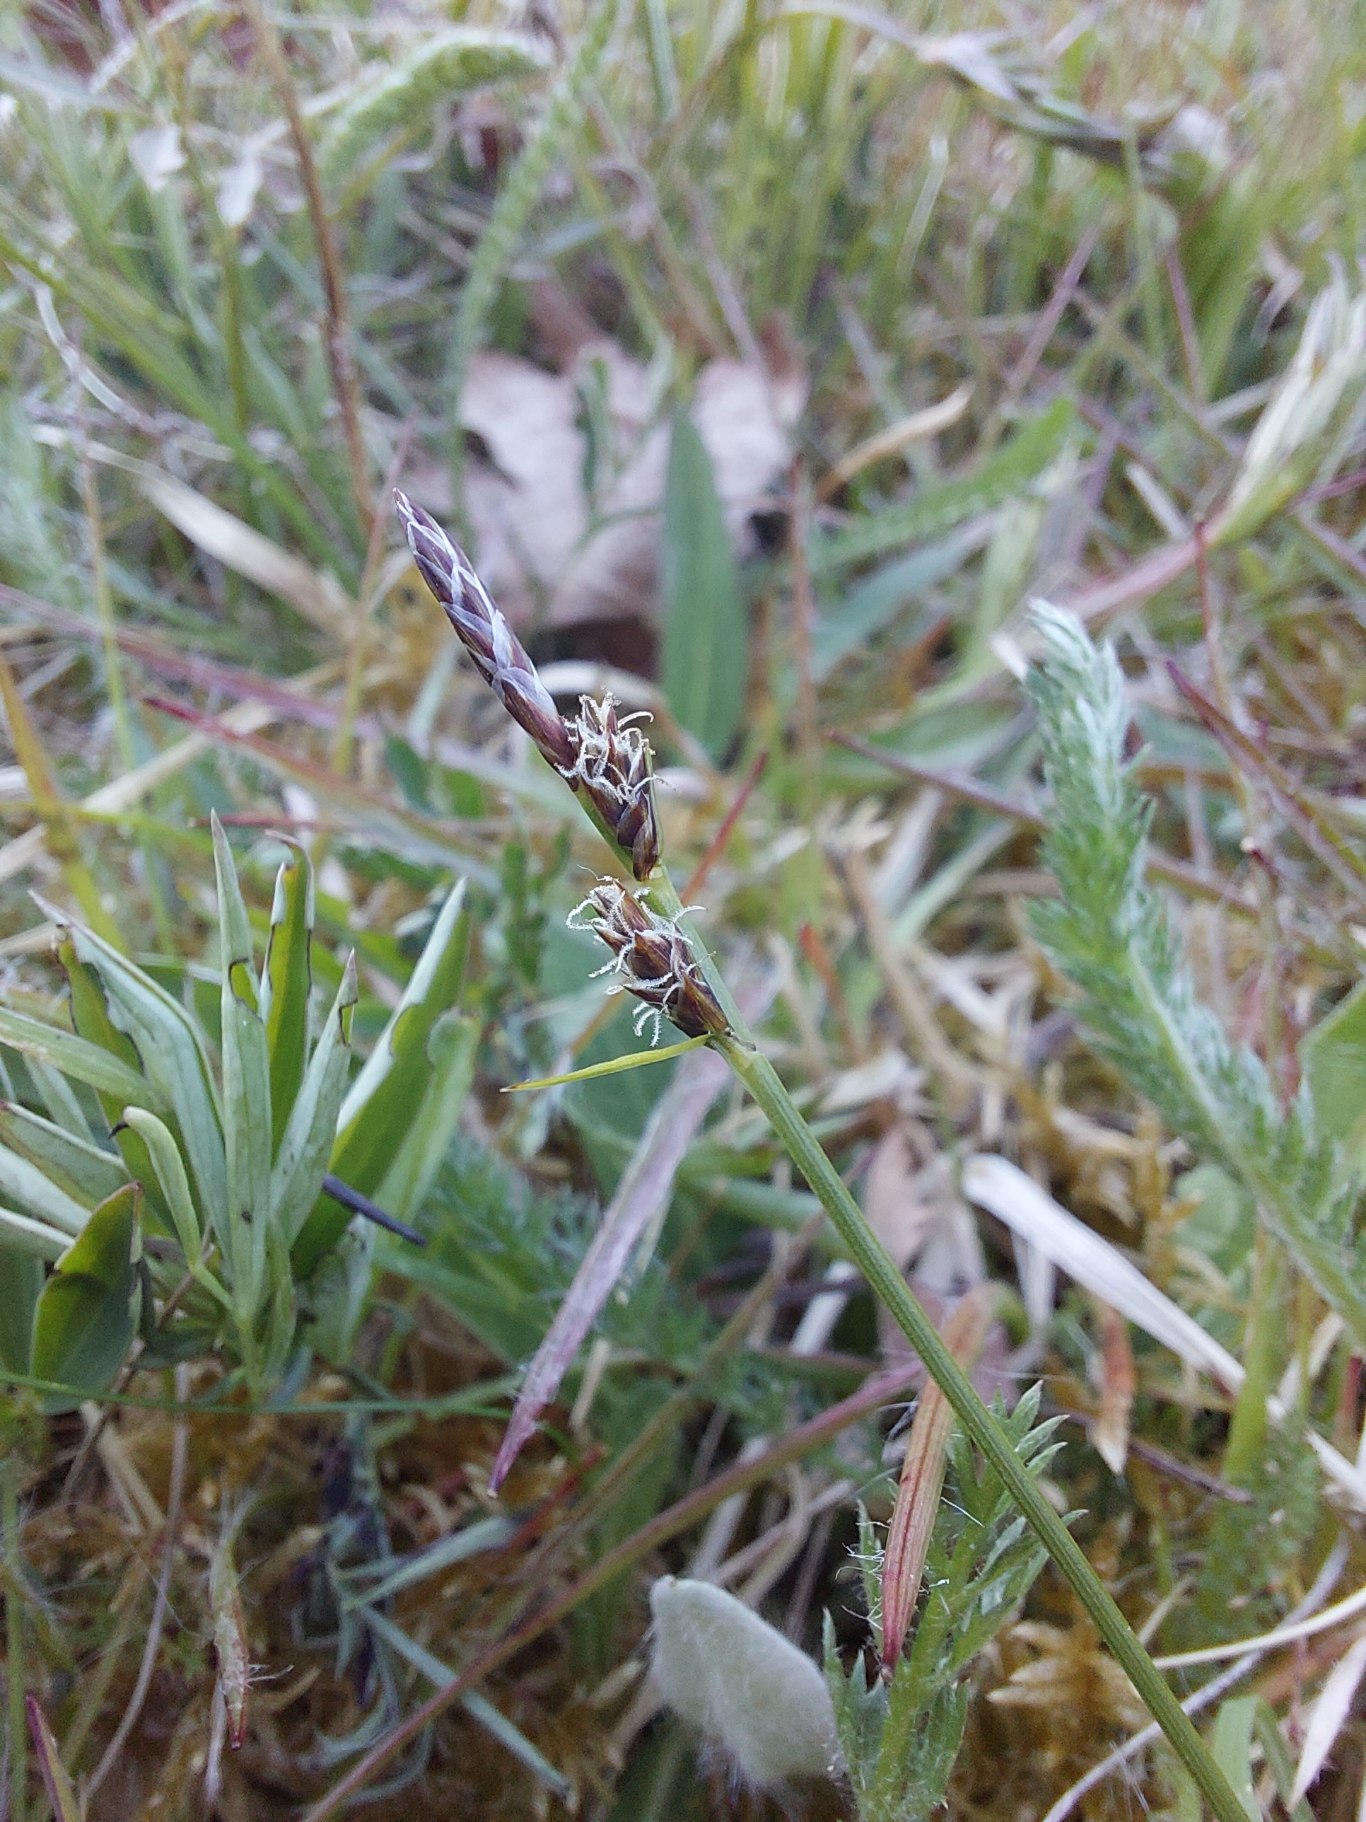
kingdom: Plantae
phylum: Tracheophyta
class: Liliopsida
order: Poales
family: Cyperaceae
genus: Carex
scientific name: Carex pilulifera
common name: Pille-star
